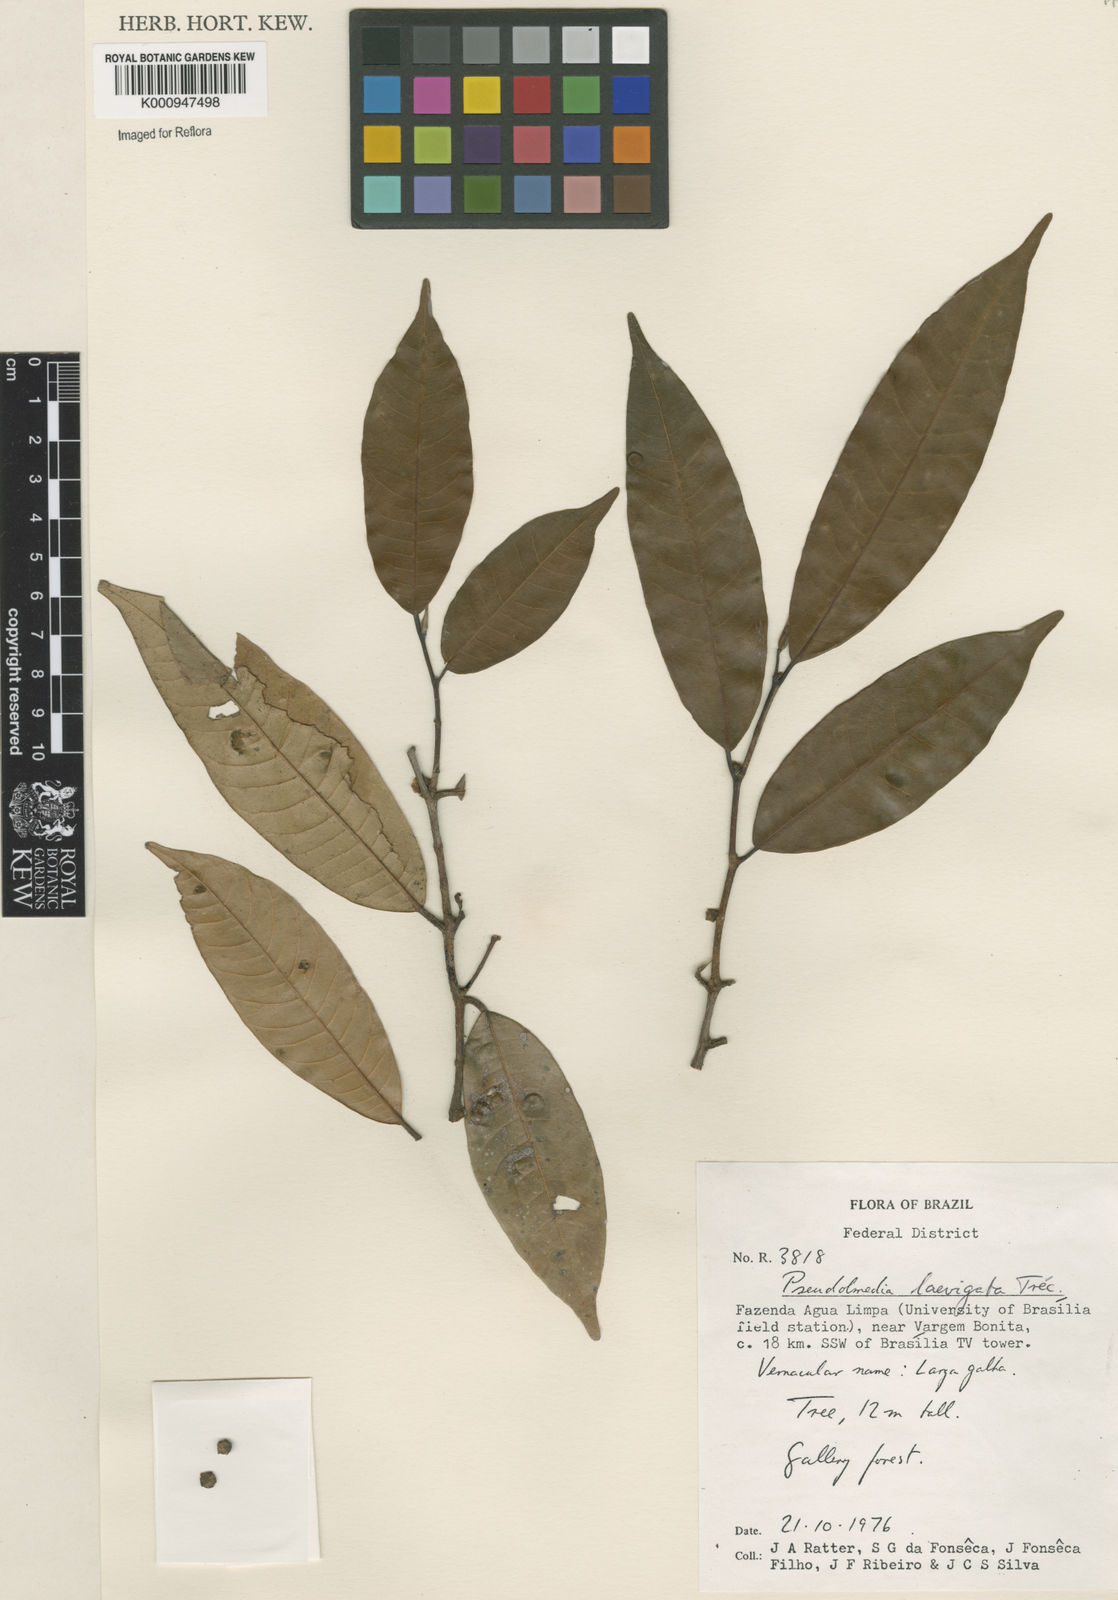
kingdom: Plantae
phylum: Tracheophyta
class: Magnoliopsida
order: Rosales
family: Moraceae
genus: Pseudolmedia
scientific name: Pseudolmedia
